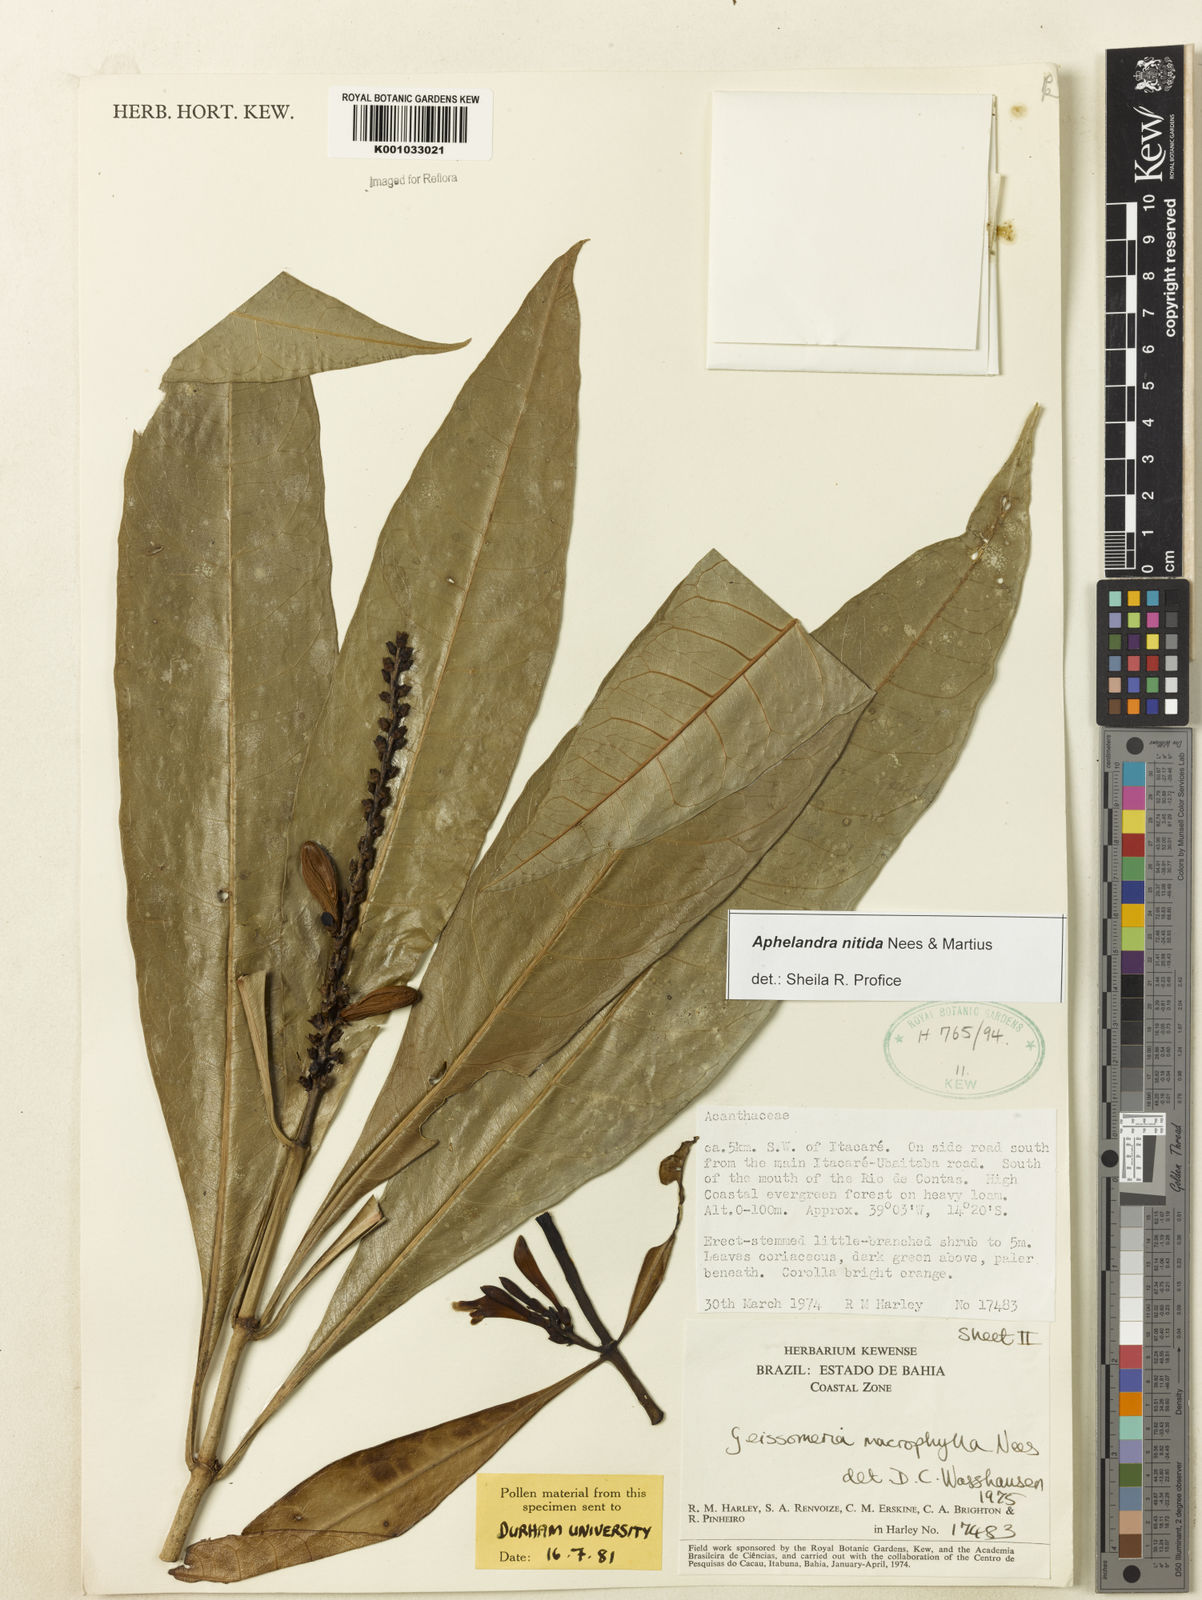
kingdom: Plantae
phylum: Tracheophyta
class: Magnoliopsida
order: Lamiales
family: Acanthaceae
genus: Aphelandra
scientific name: Aphelandra nitida
